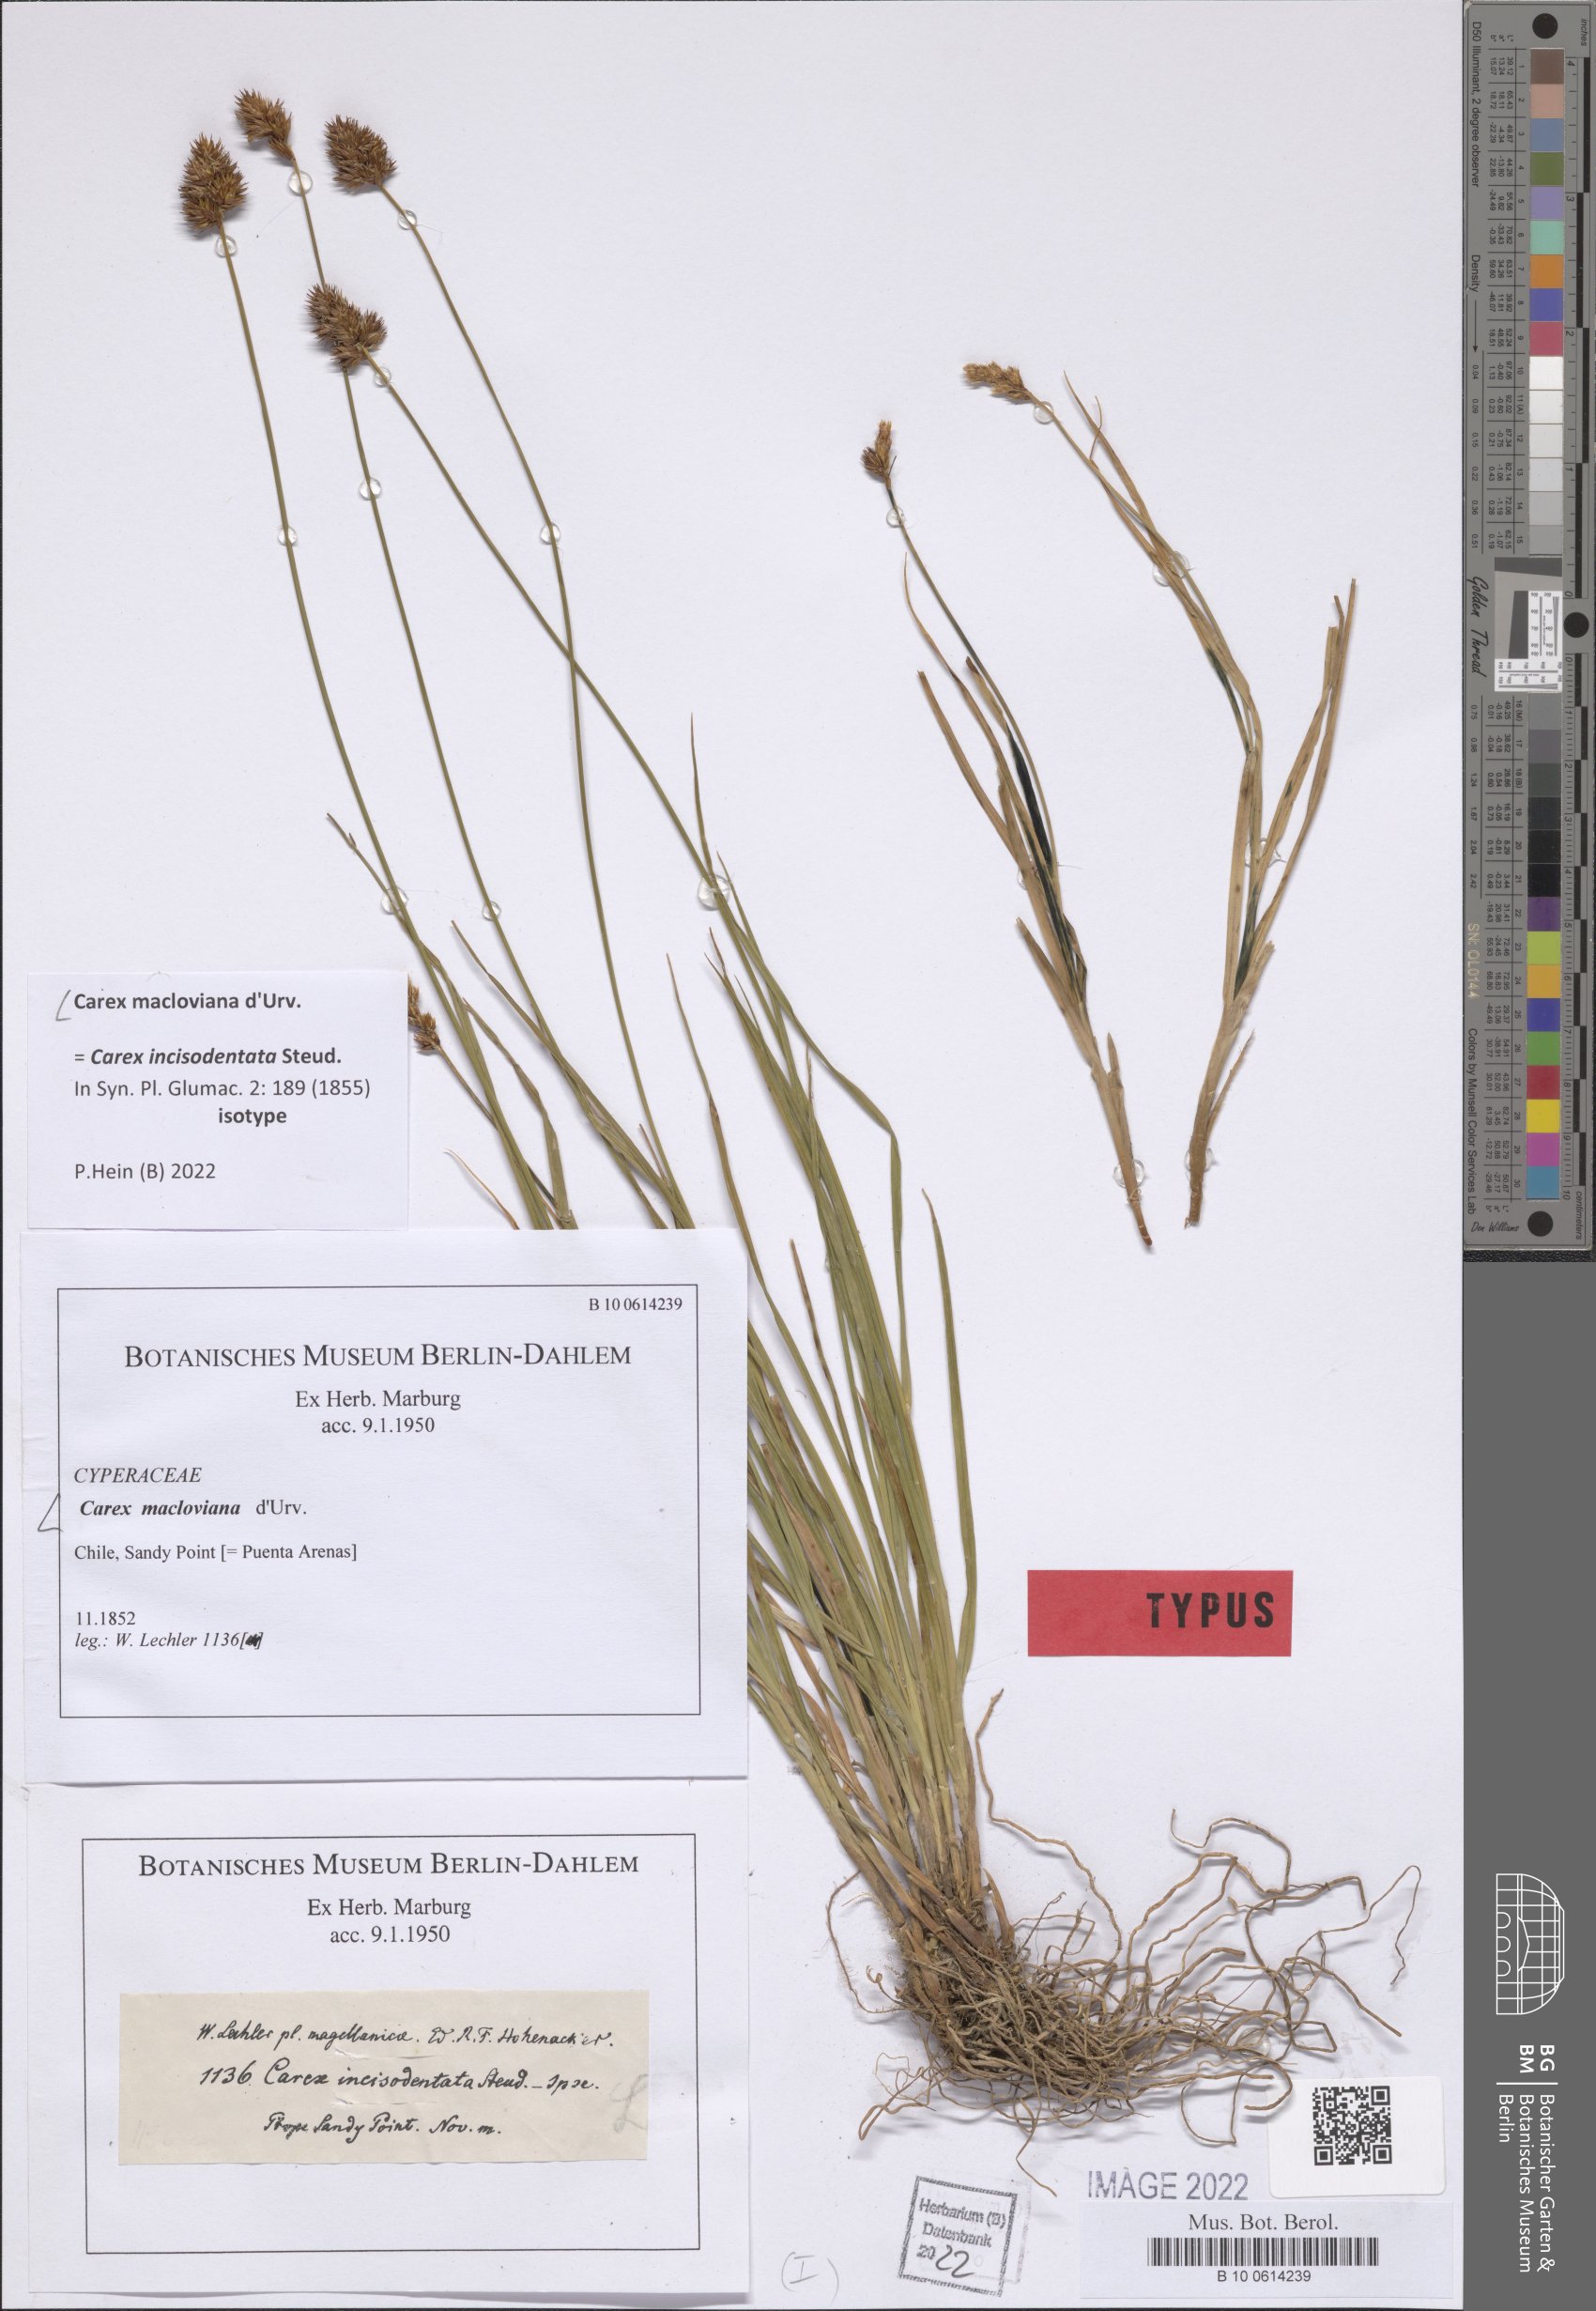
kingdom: Plantae
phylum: Tracheophyta
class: Liliopsida
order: Poales
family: Cyperaceae
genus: Carex
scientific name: Carex macloviana
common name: Falkland island sedge
